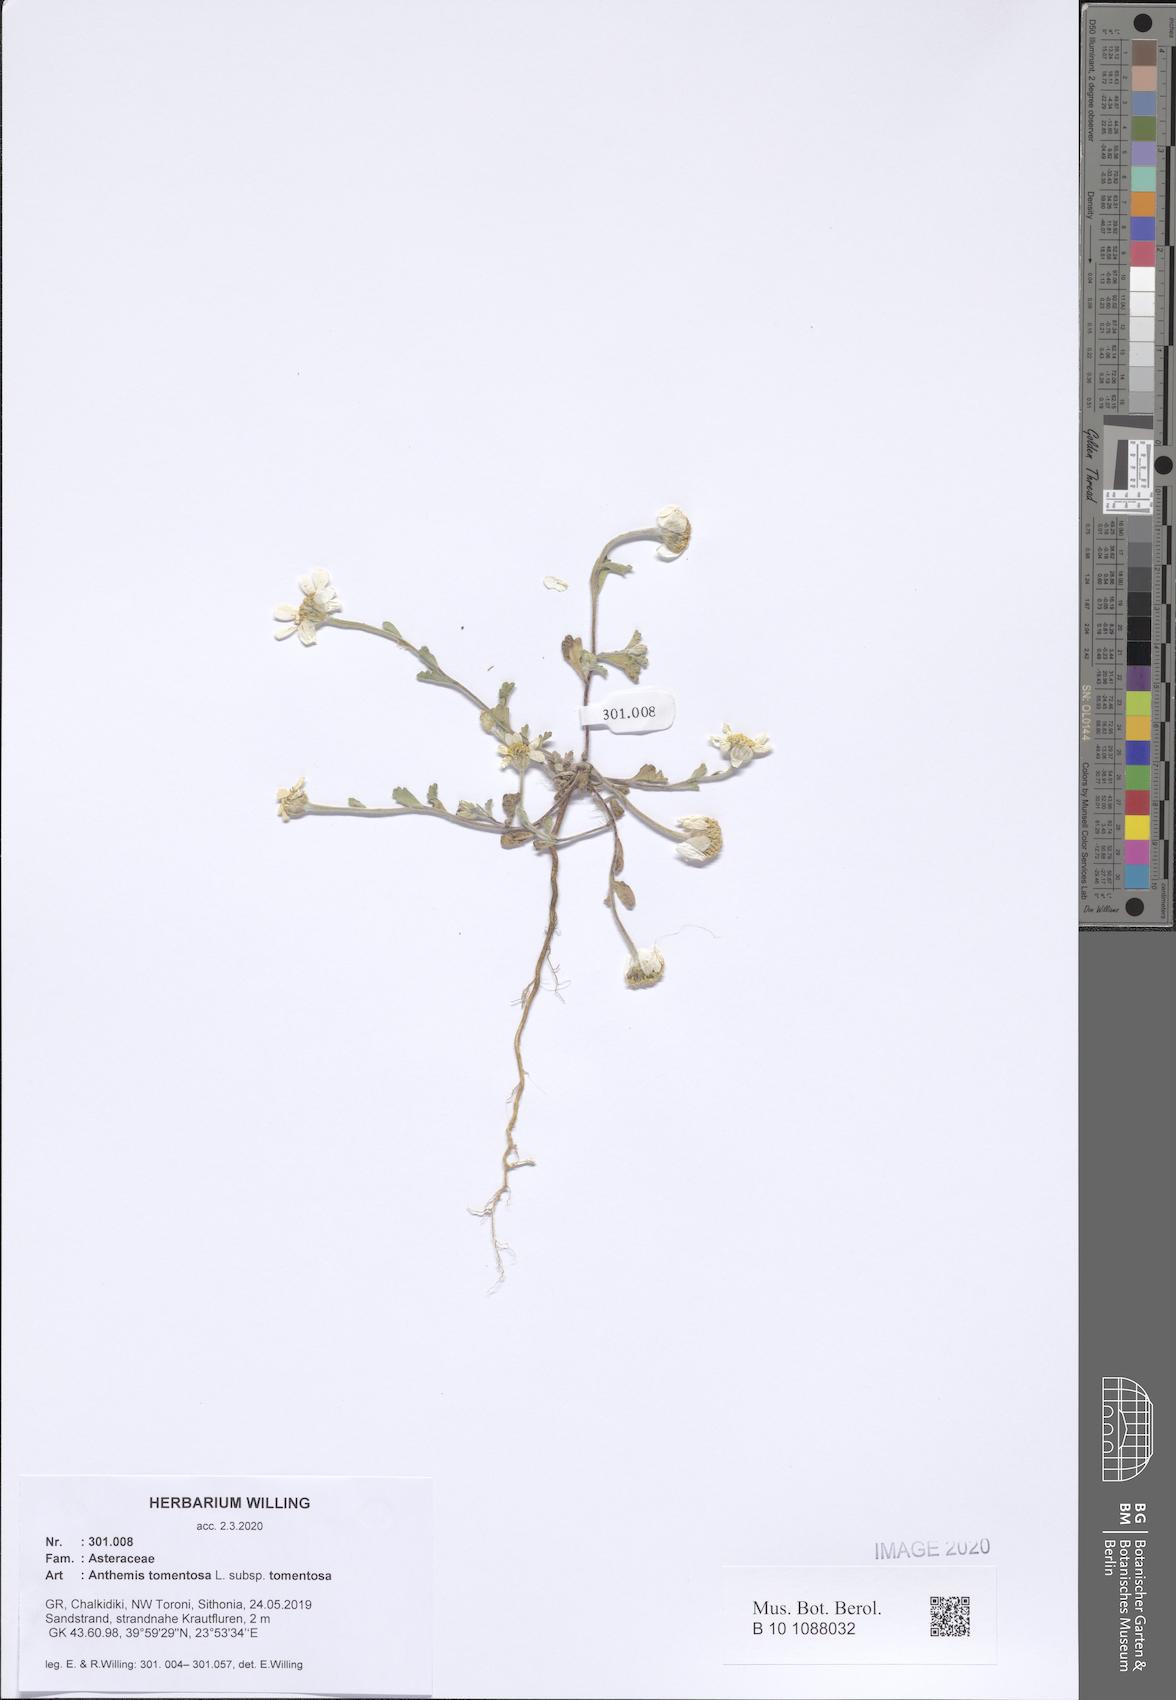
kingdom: Plantae
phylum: Tracheophyta
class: Magnoliopsida
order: Asterales
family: Asteraceae
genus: Anthemis
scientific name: Anthemis tomentosa
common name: Woolly chamomile
